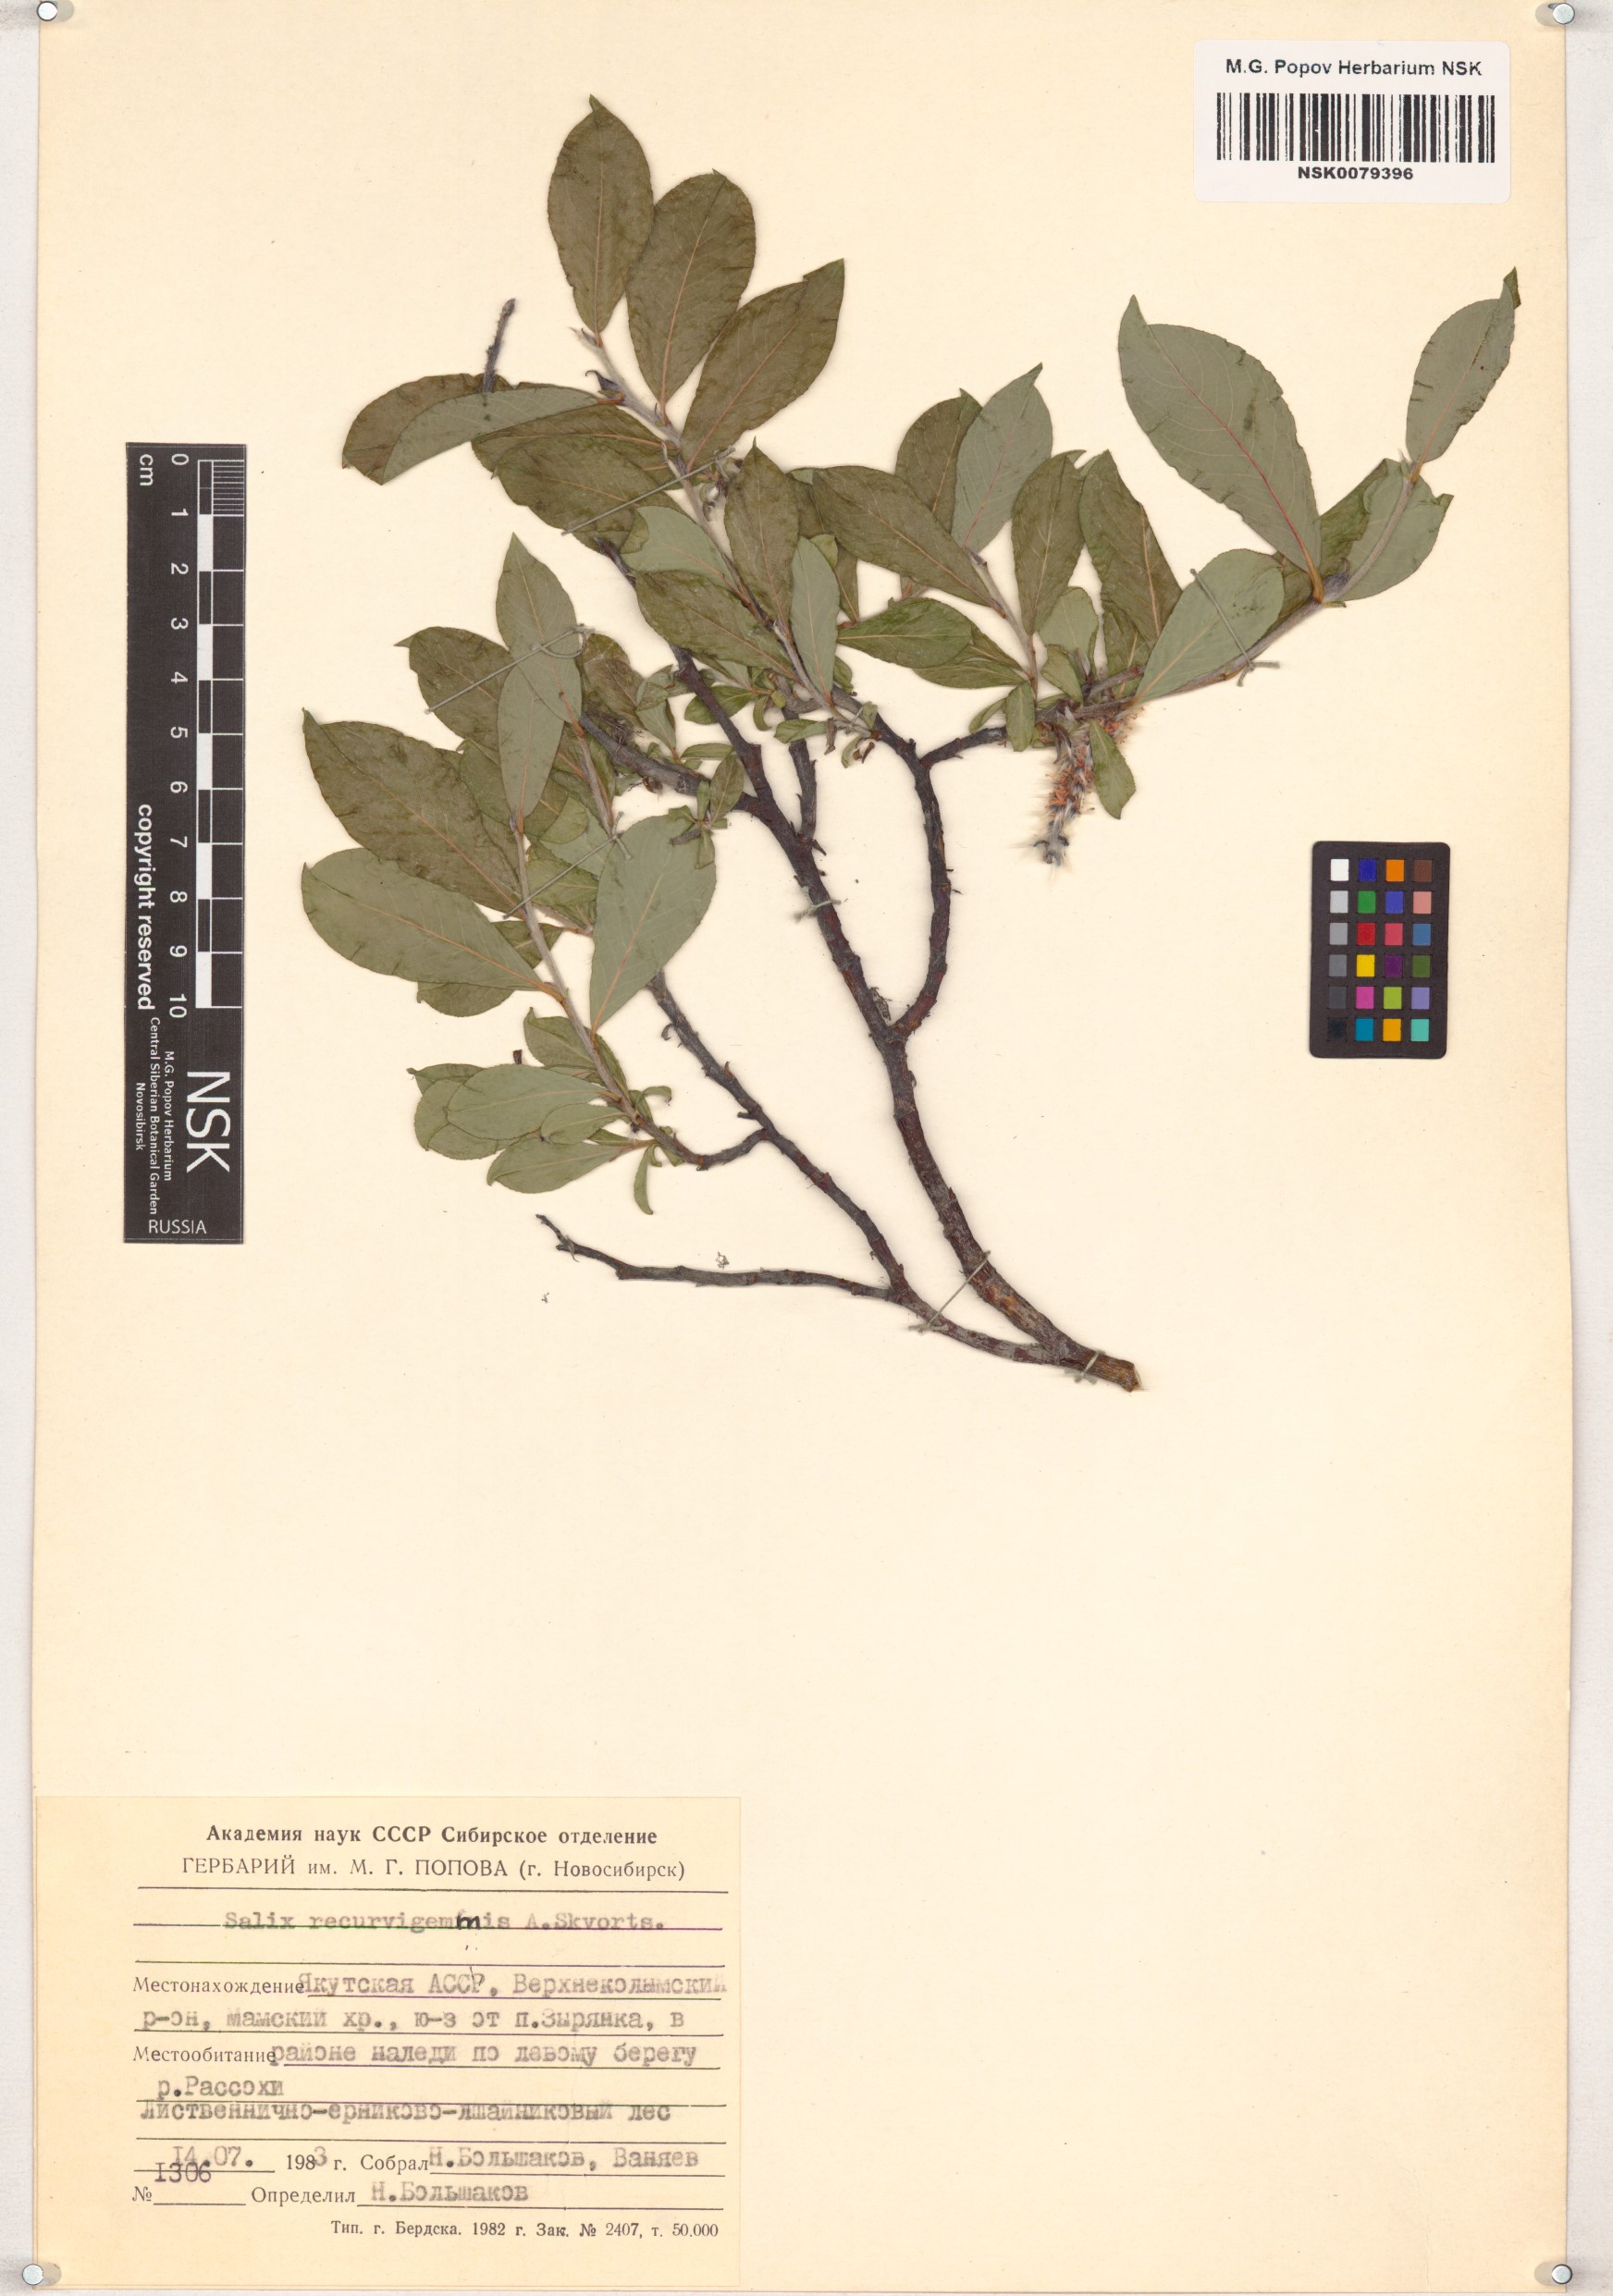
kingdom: Plantae
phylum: Tracheophyta
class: Magnoliopsida
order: Malpighiales
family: Salicaceae
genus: Salix
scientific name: Salix recurvigemmata
